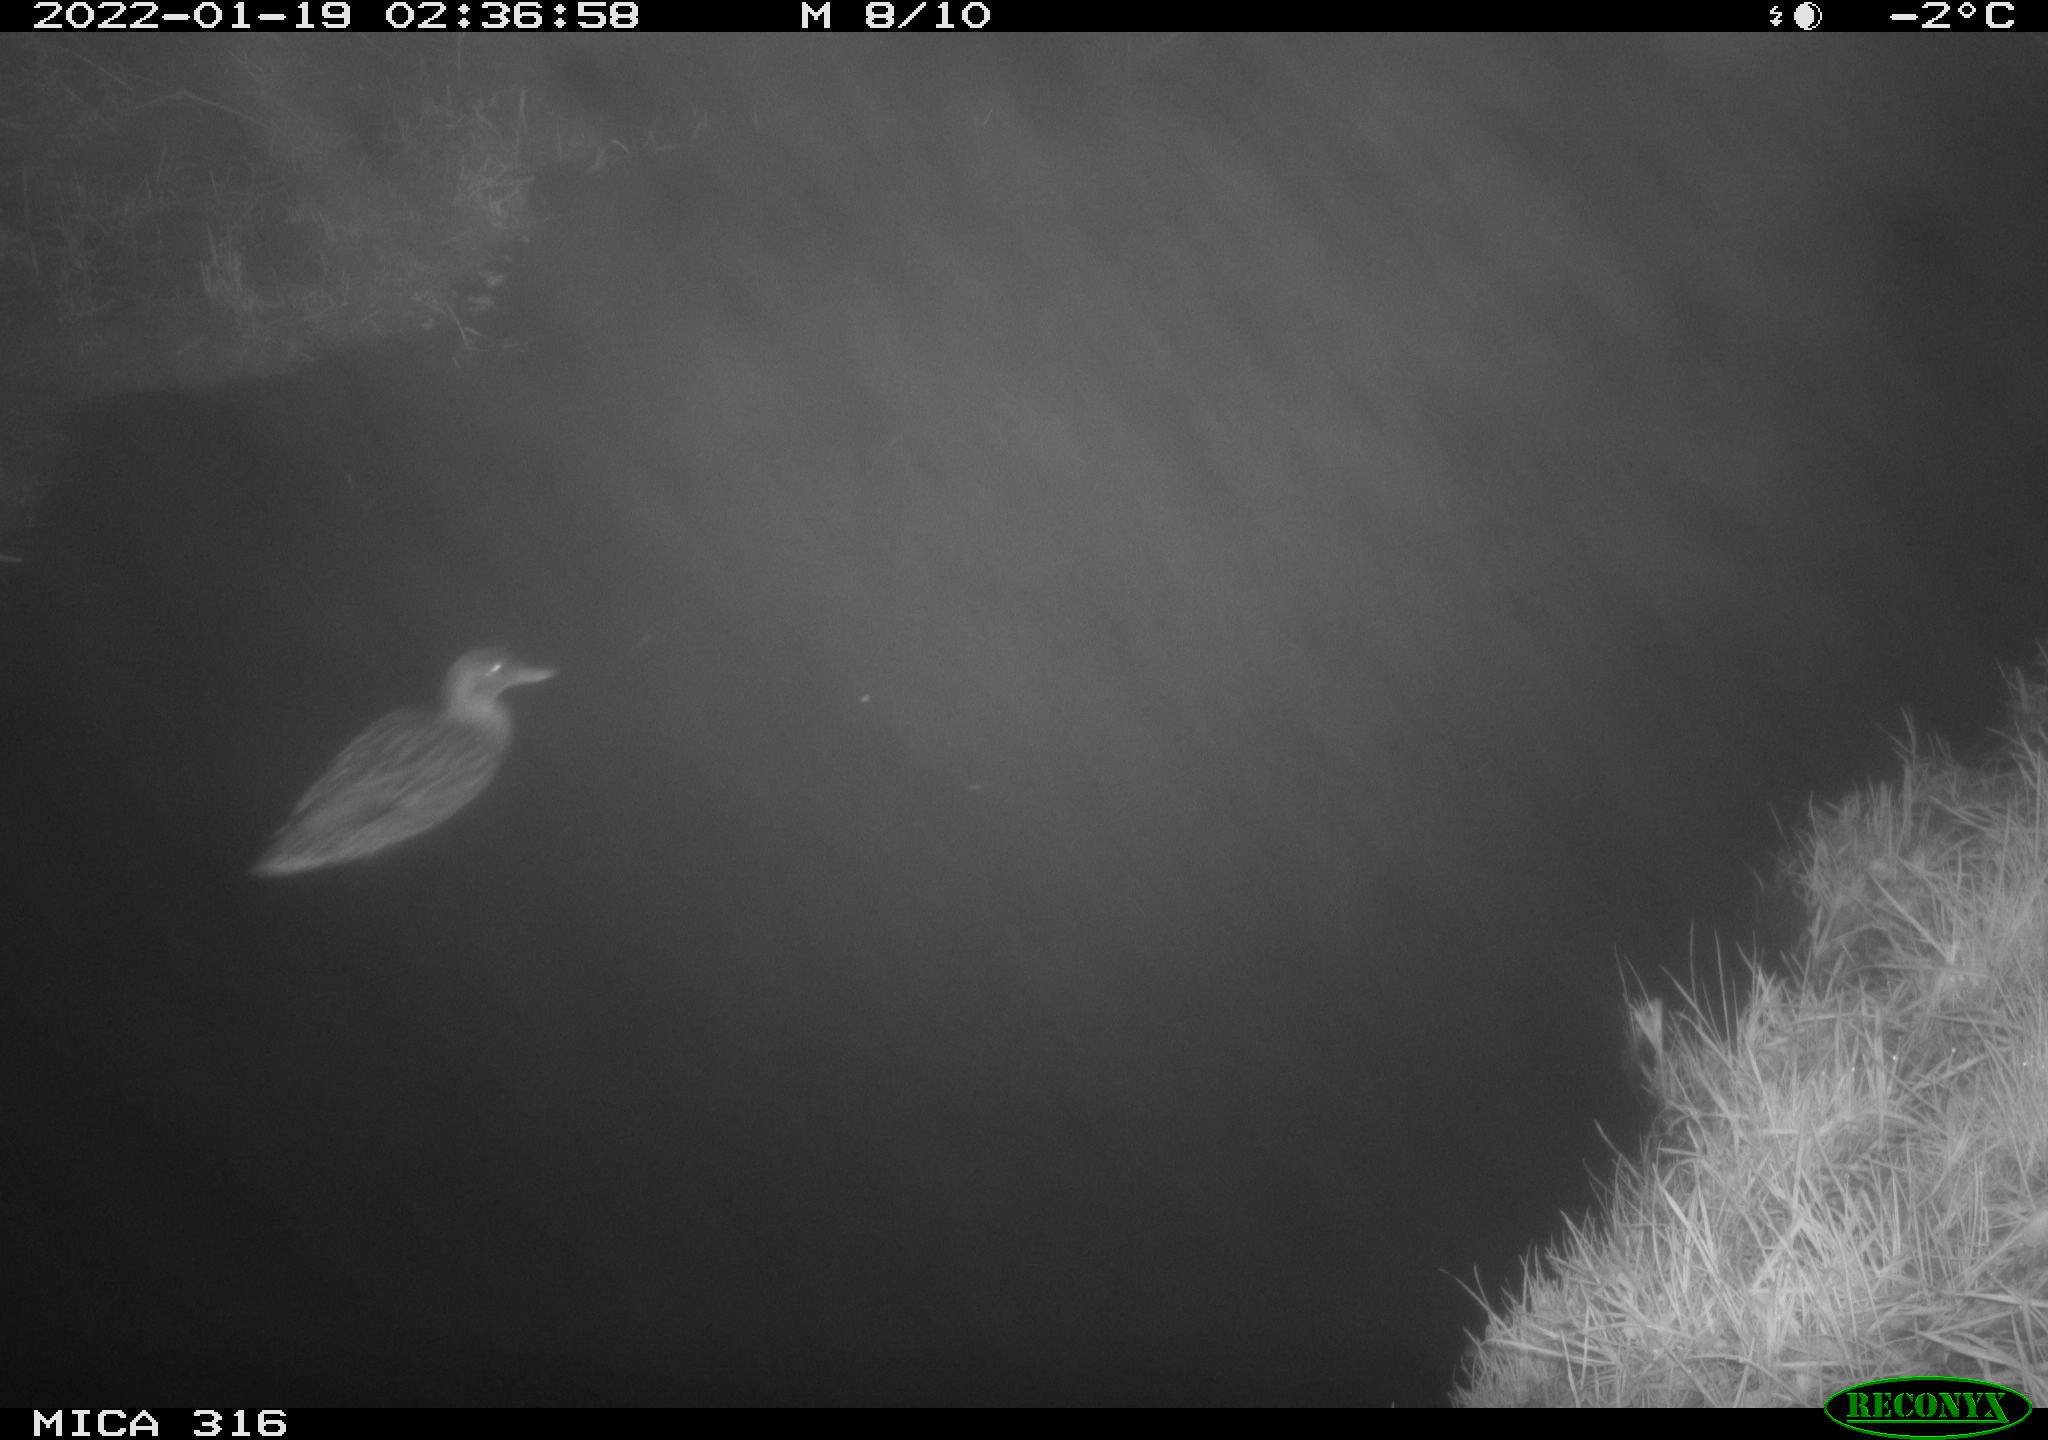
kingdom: Animalia
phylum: Chordata
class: Aves
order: Anseriformes
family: Anatidae
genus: Anas
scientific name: Anas
